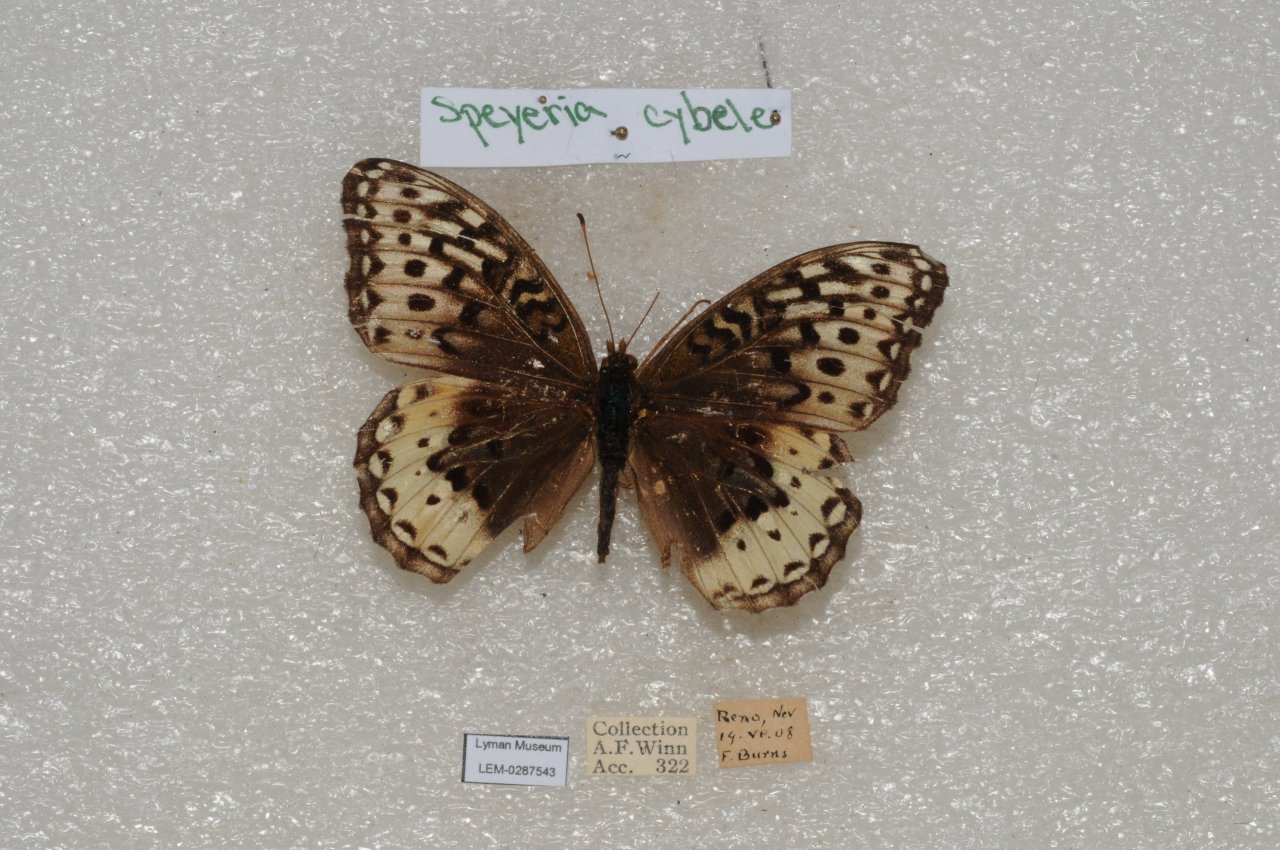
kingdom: Animalia
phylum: Arthropoda
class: Insecta
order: Lepidoptera
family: Nymphalidae
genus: Speyeria
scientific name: Speyeria cybele
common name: Great Spangled Fritillary
